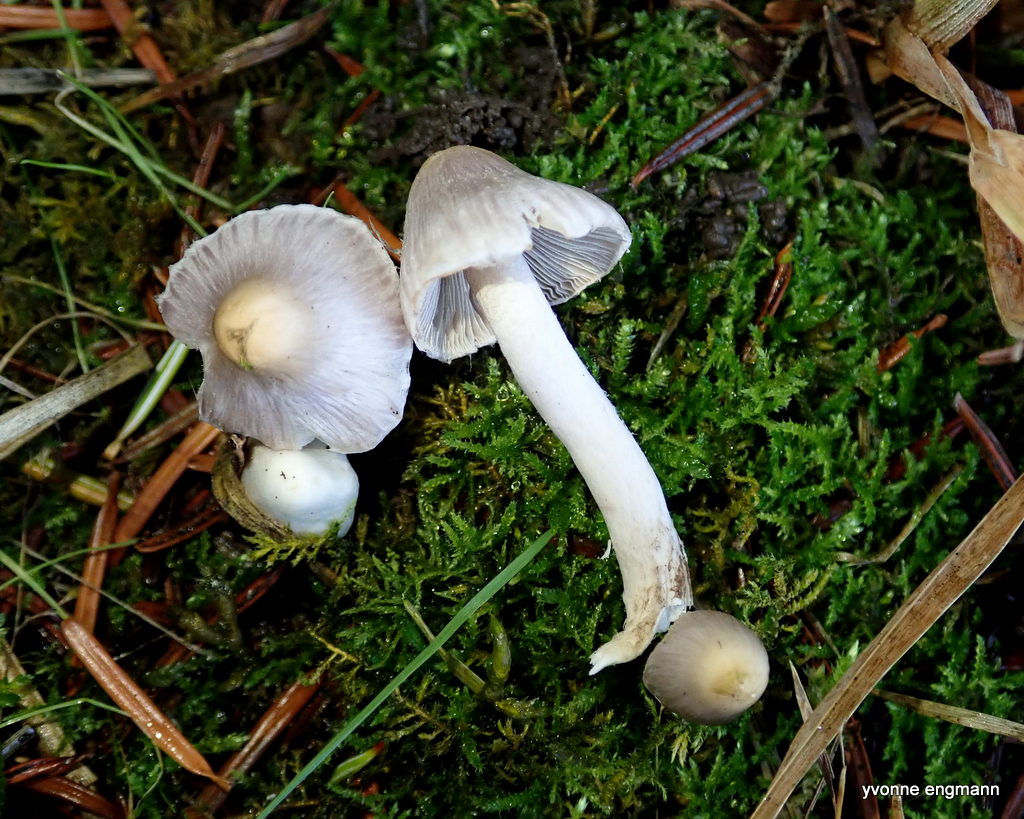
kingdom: Fungi
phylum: Basidiomycota
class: Agaricomycetes
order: Agaricales
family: Inocybaceae
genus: Inocybe
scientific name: Inocybe
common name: almindelig trævlhat
